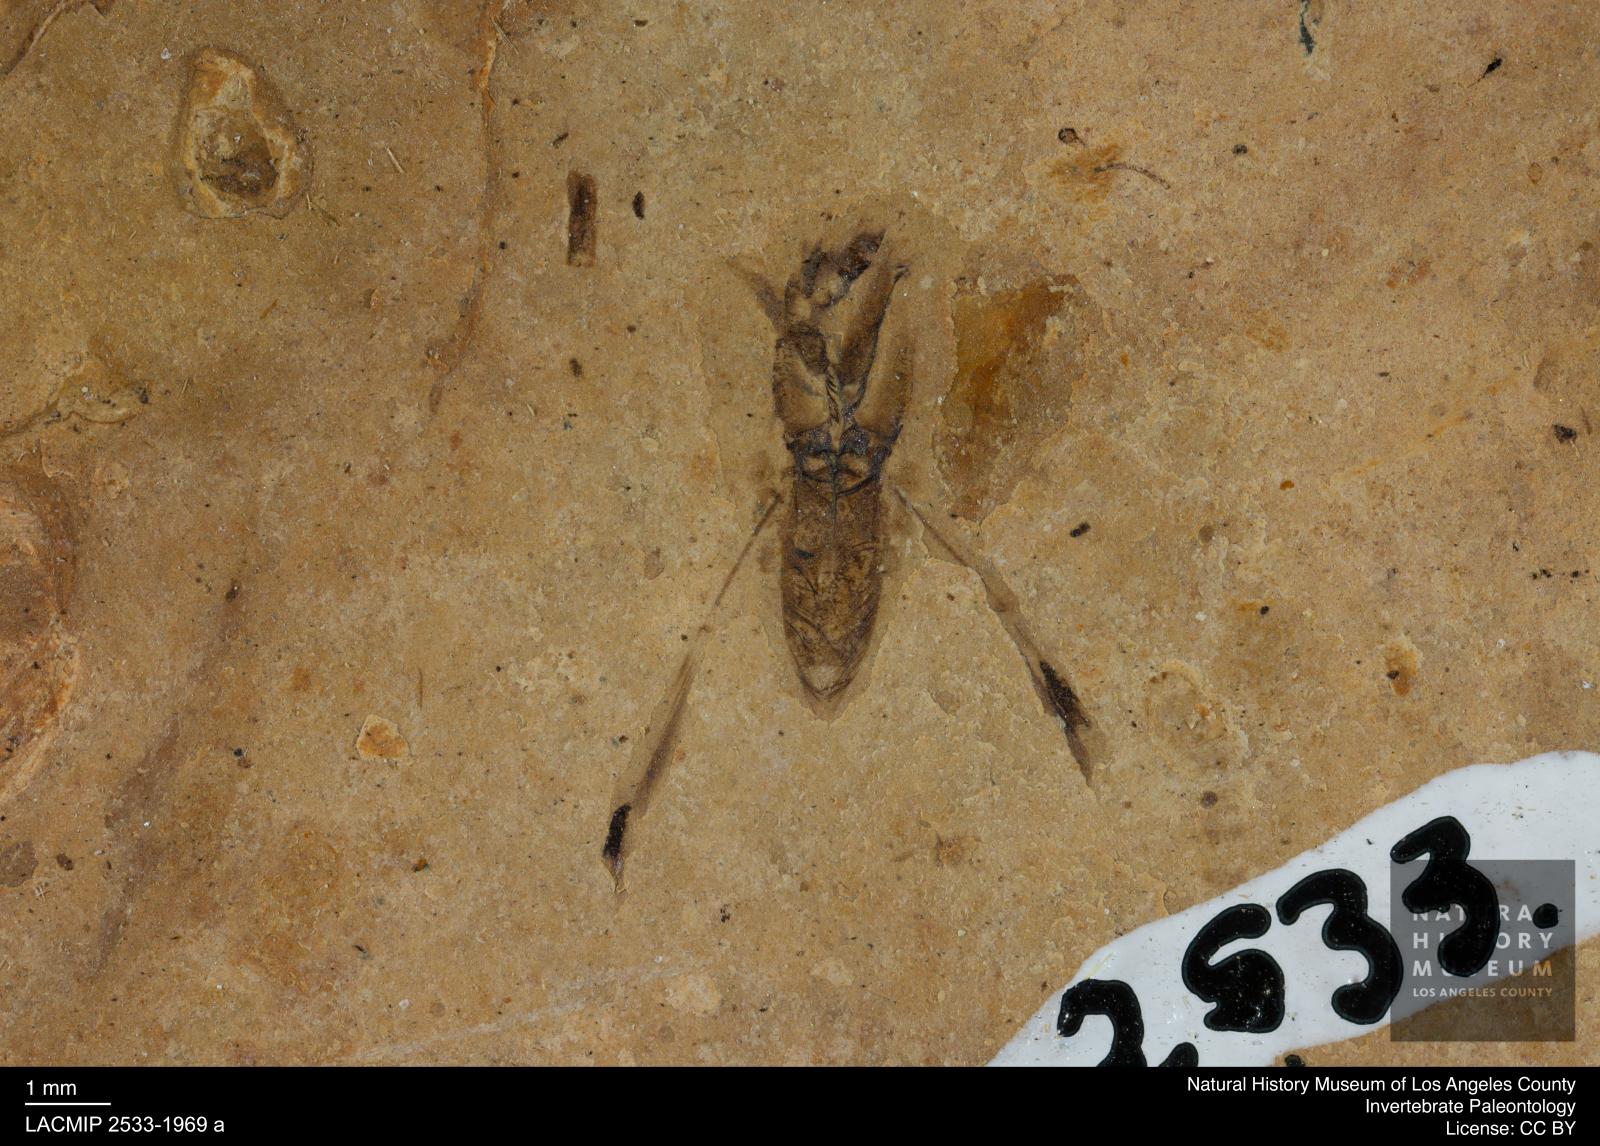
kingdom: Animalia
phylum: Arthropoda
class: Insecta
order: Hemiptera
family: Notonectidae
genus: Anisops
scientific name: Anisops Notonecta deichmuelleri
